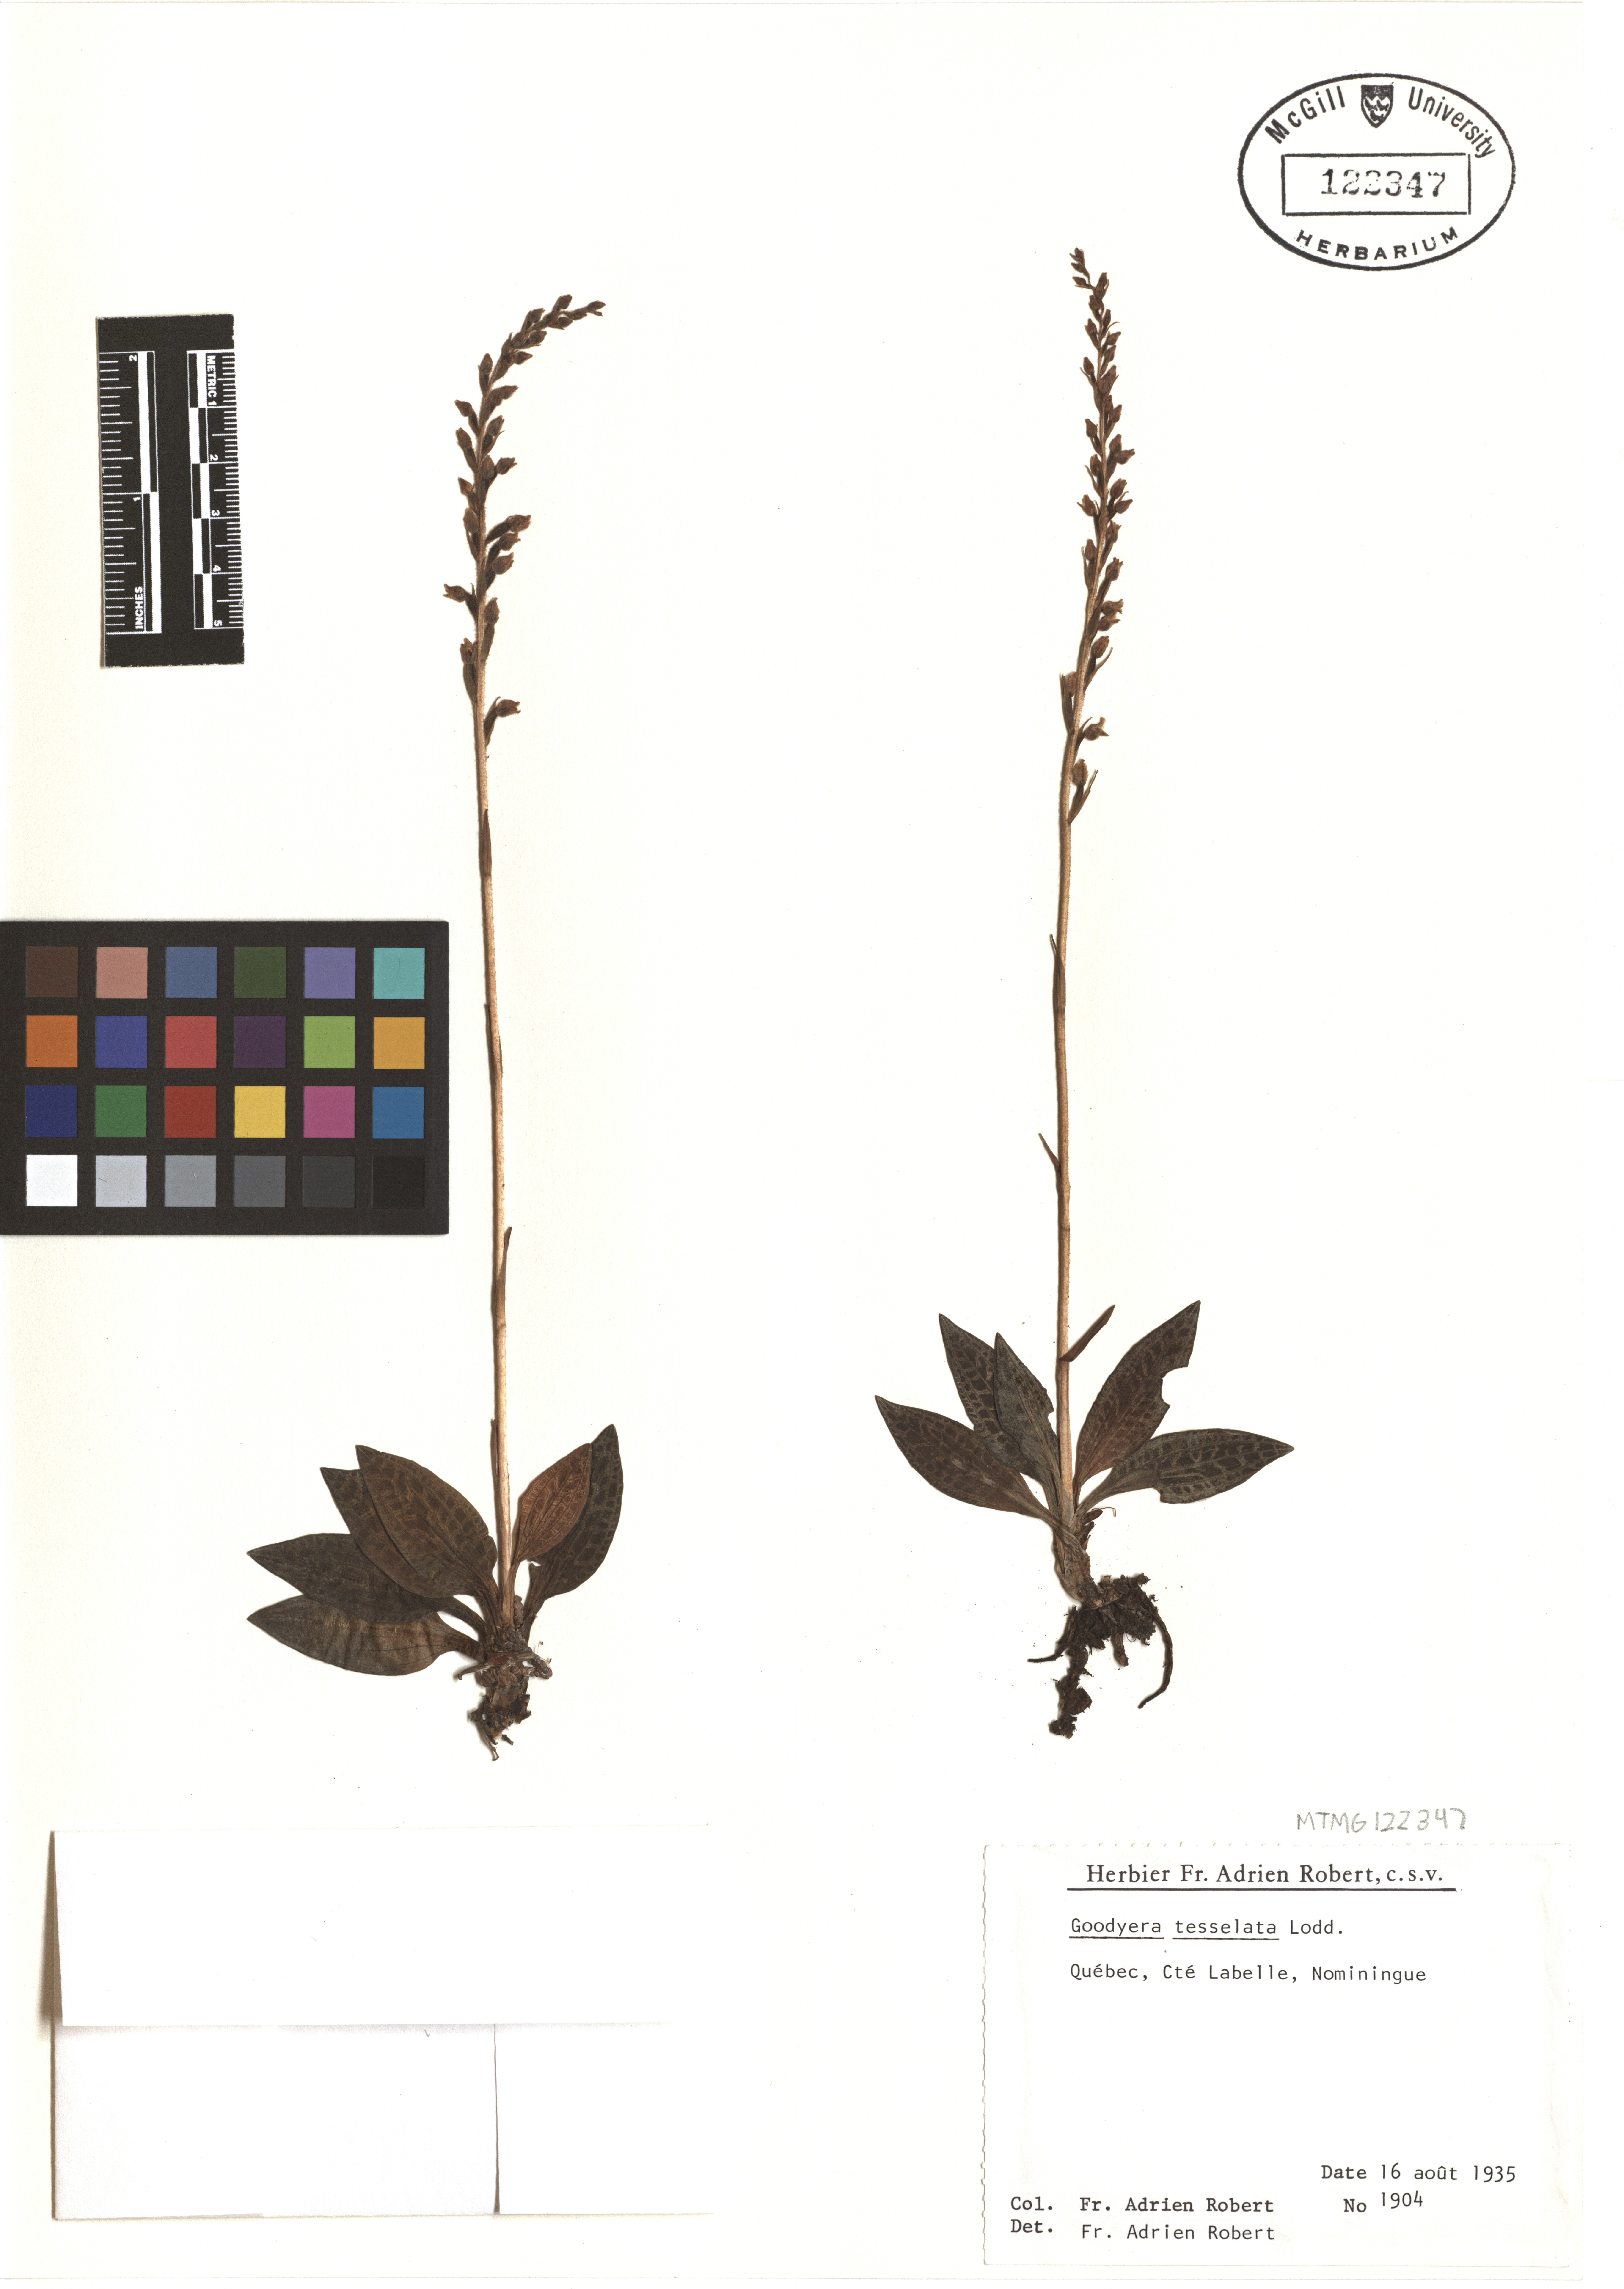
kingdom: Plantae
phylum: Tracheophyta
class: Liliopsida
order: Asparagales
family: Orchidaceae
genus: Goodyera
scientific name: Goodyera tesselata
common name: Checkered rattlesnake-plantain
